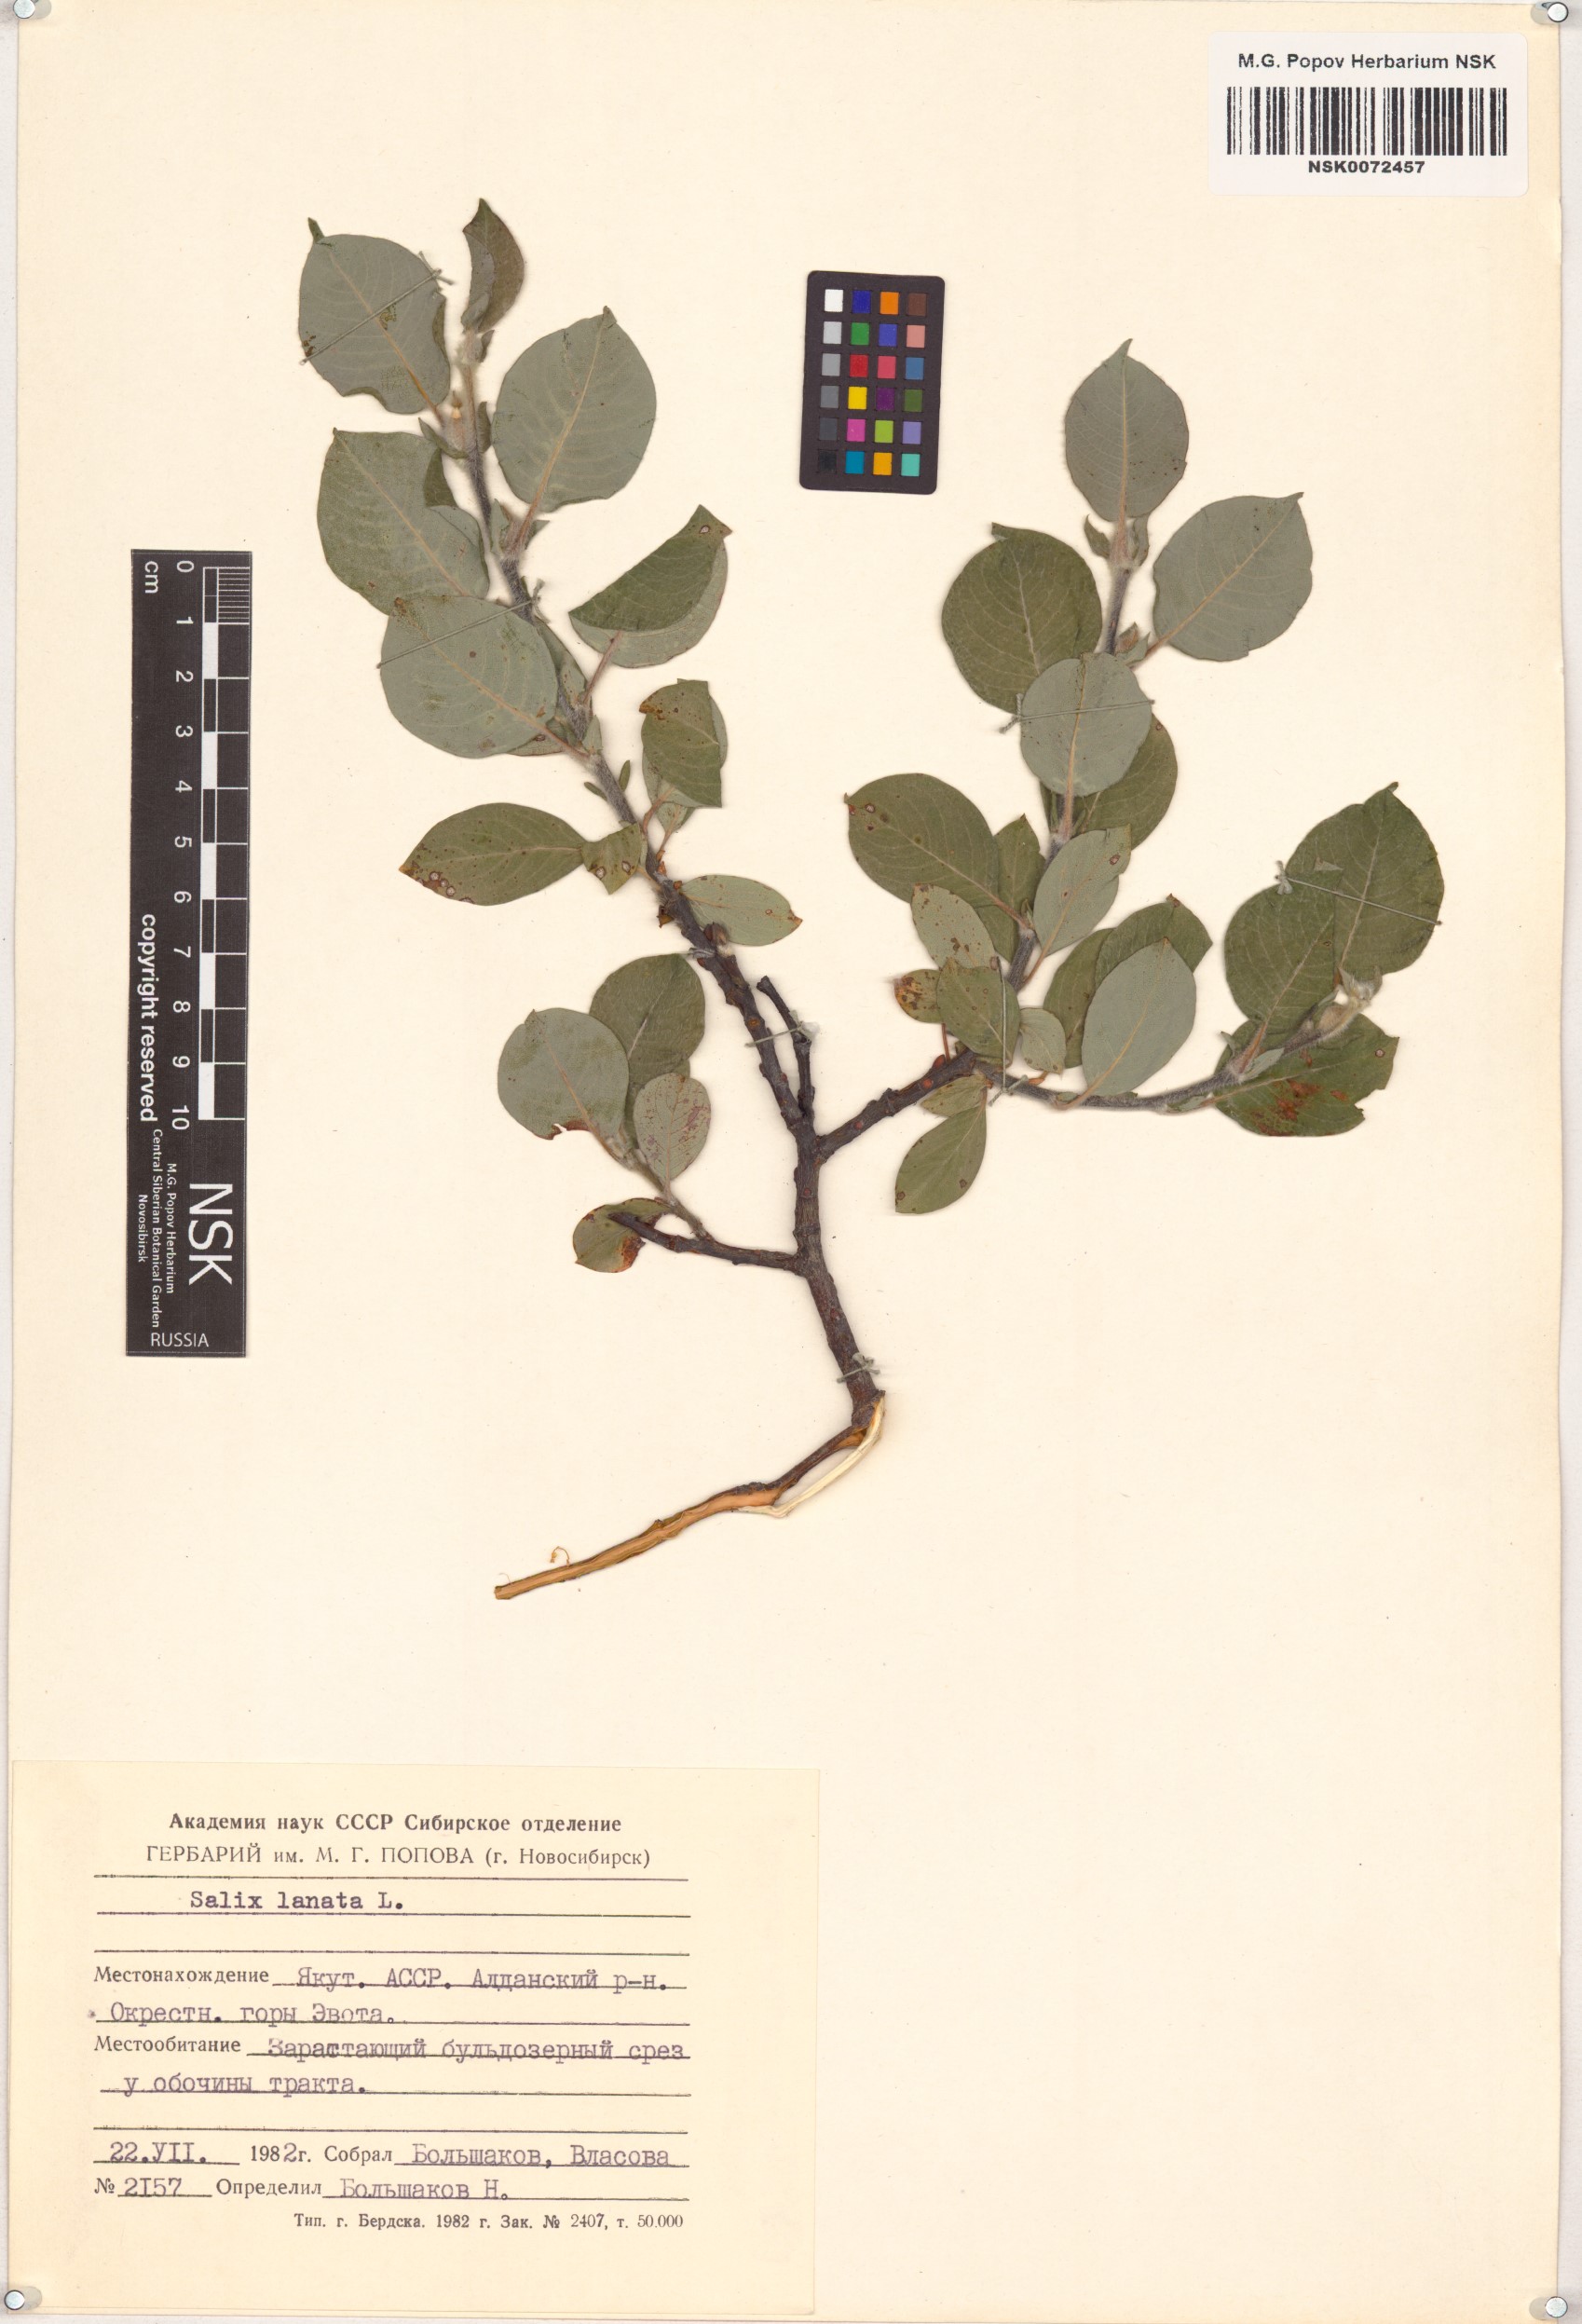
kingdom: Plantae
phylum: Tracheophyta
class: Magnoliopsida
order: Malpighiales
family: Salicaceae
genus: Salix
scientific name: Salix lanata
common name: Woolly willow
